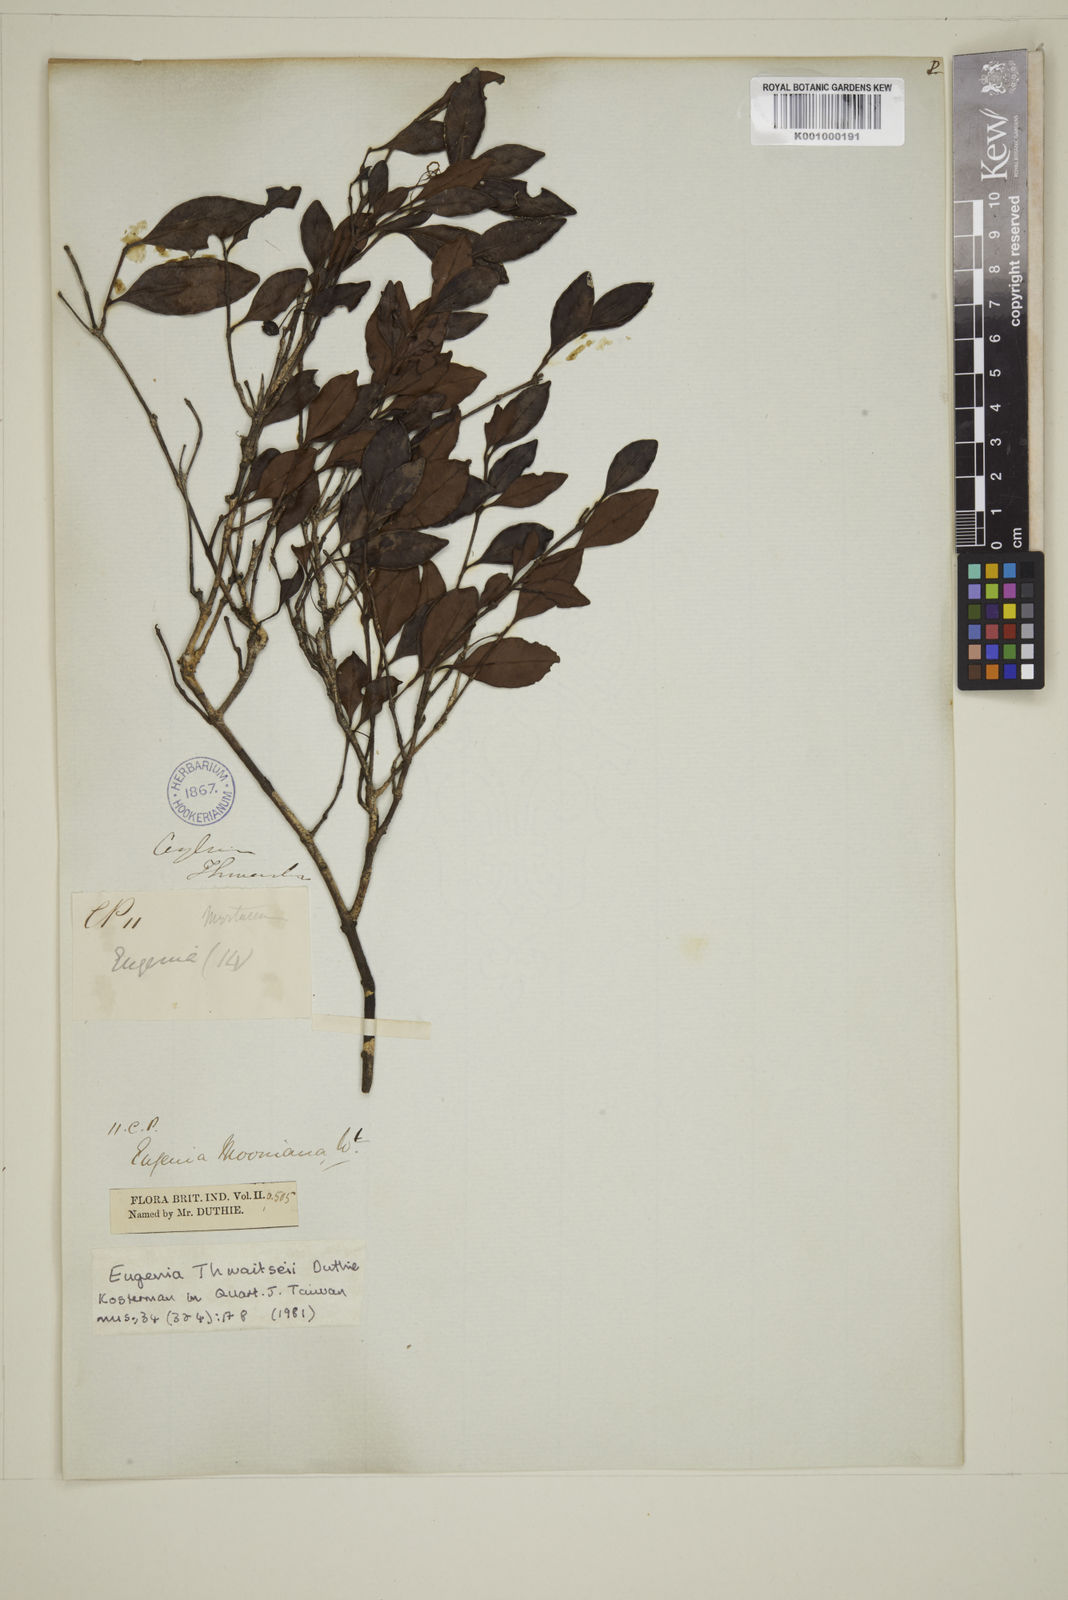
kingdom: Plantae
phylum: Tracheophyta
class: Magnoliopsida
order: Myrtales
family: Myrtaceae
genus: Eugenia
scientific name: Eugenia thwaitesii
